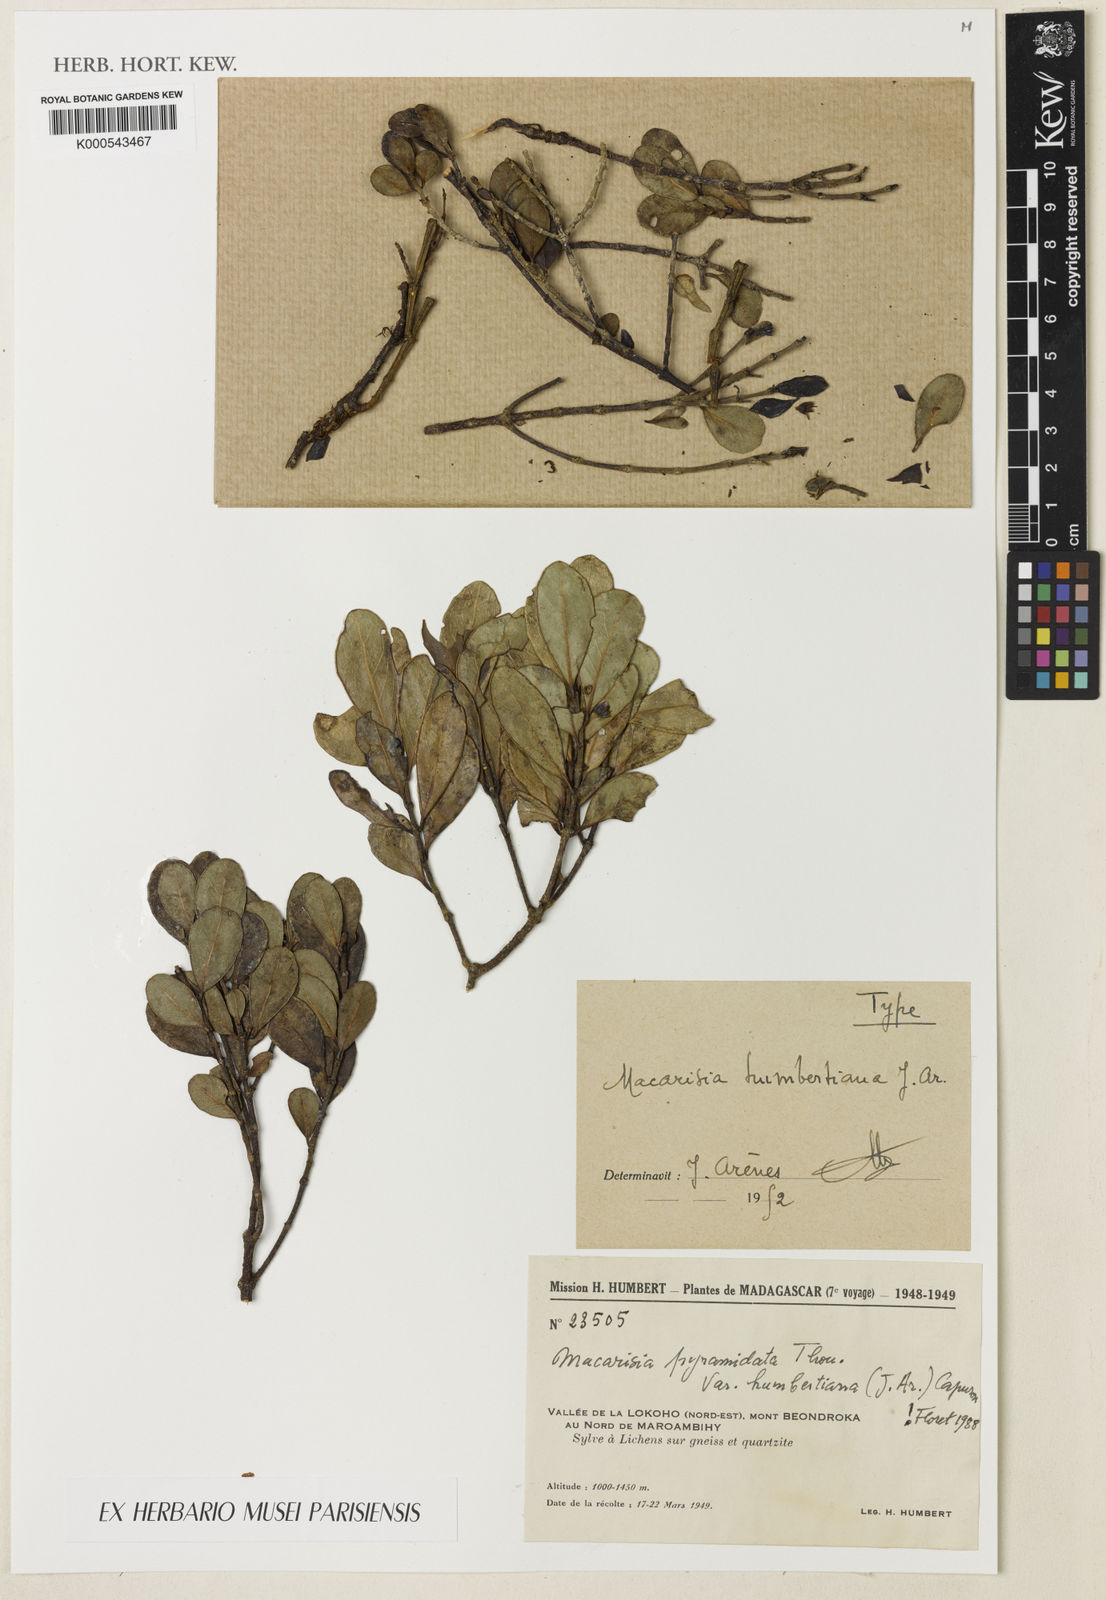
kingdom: Plantae
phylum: Tracheophyta
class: Magnoliopsida
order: Malpighiales
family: Rhizophoraceae
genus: Macarisia
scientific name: Macarisia
